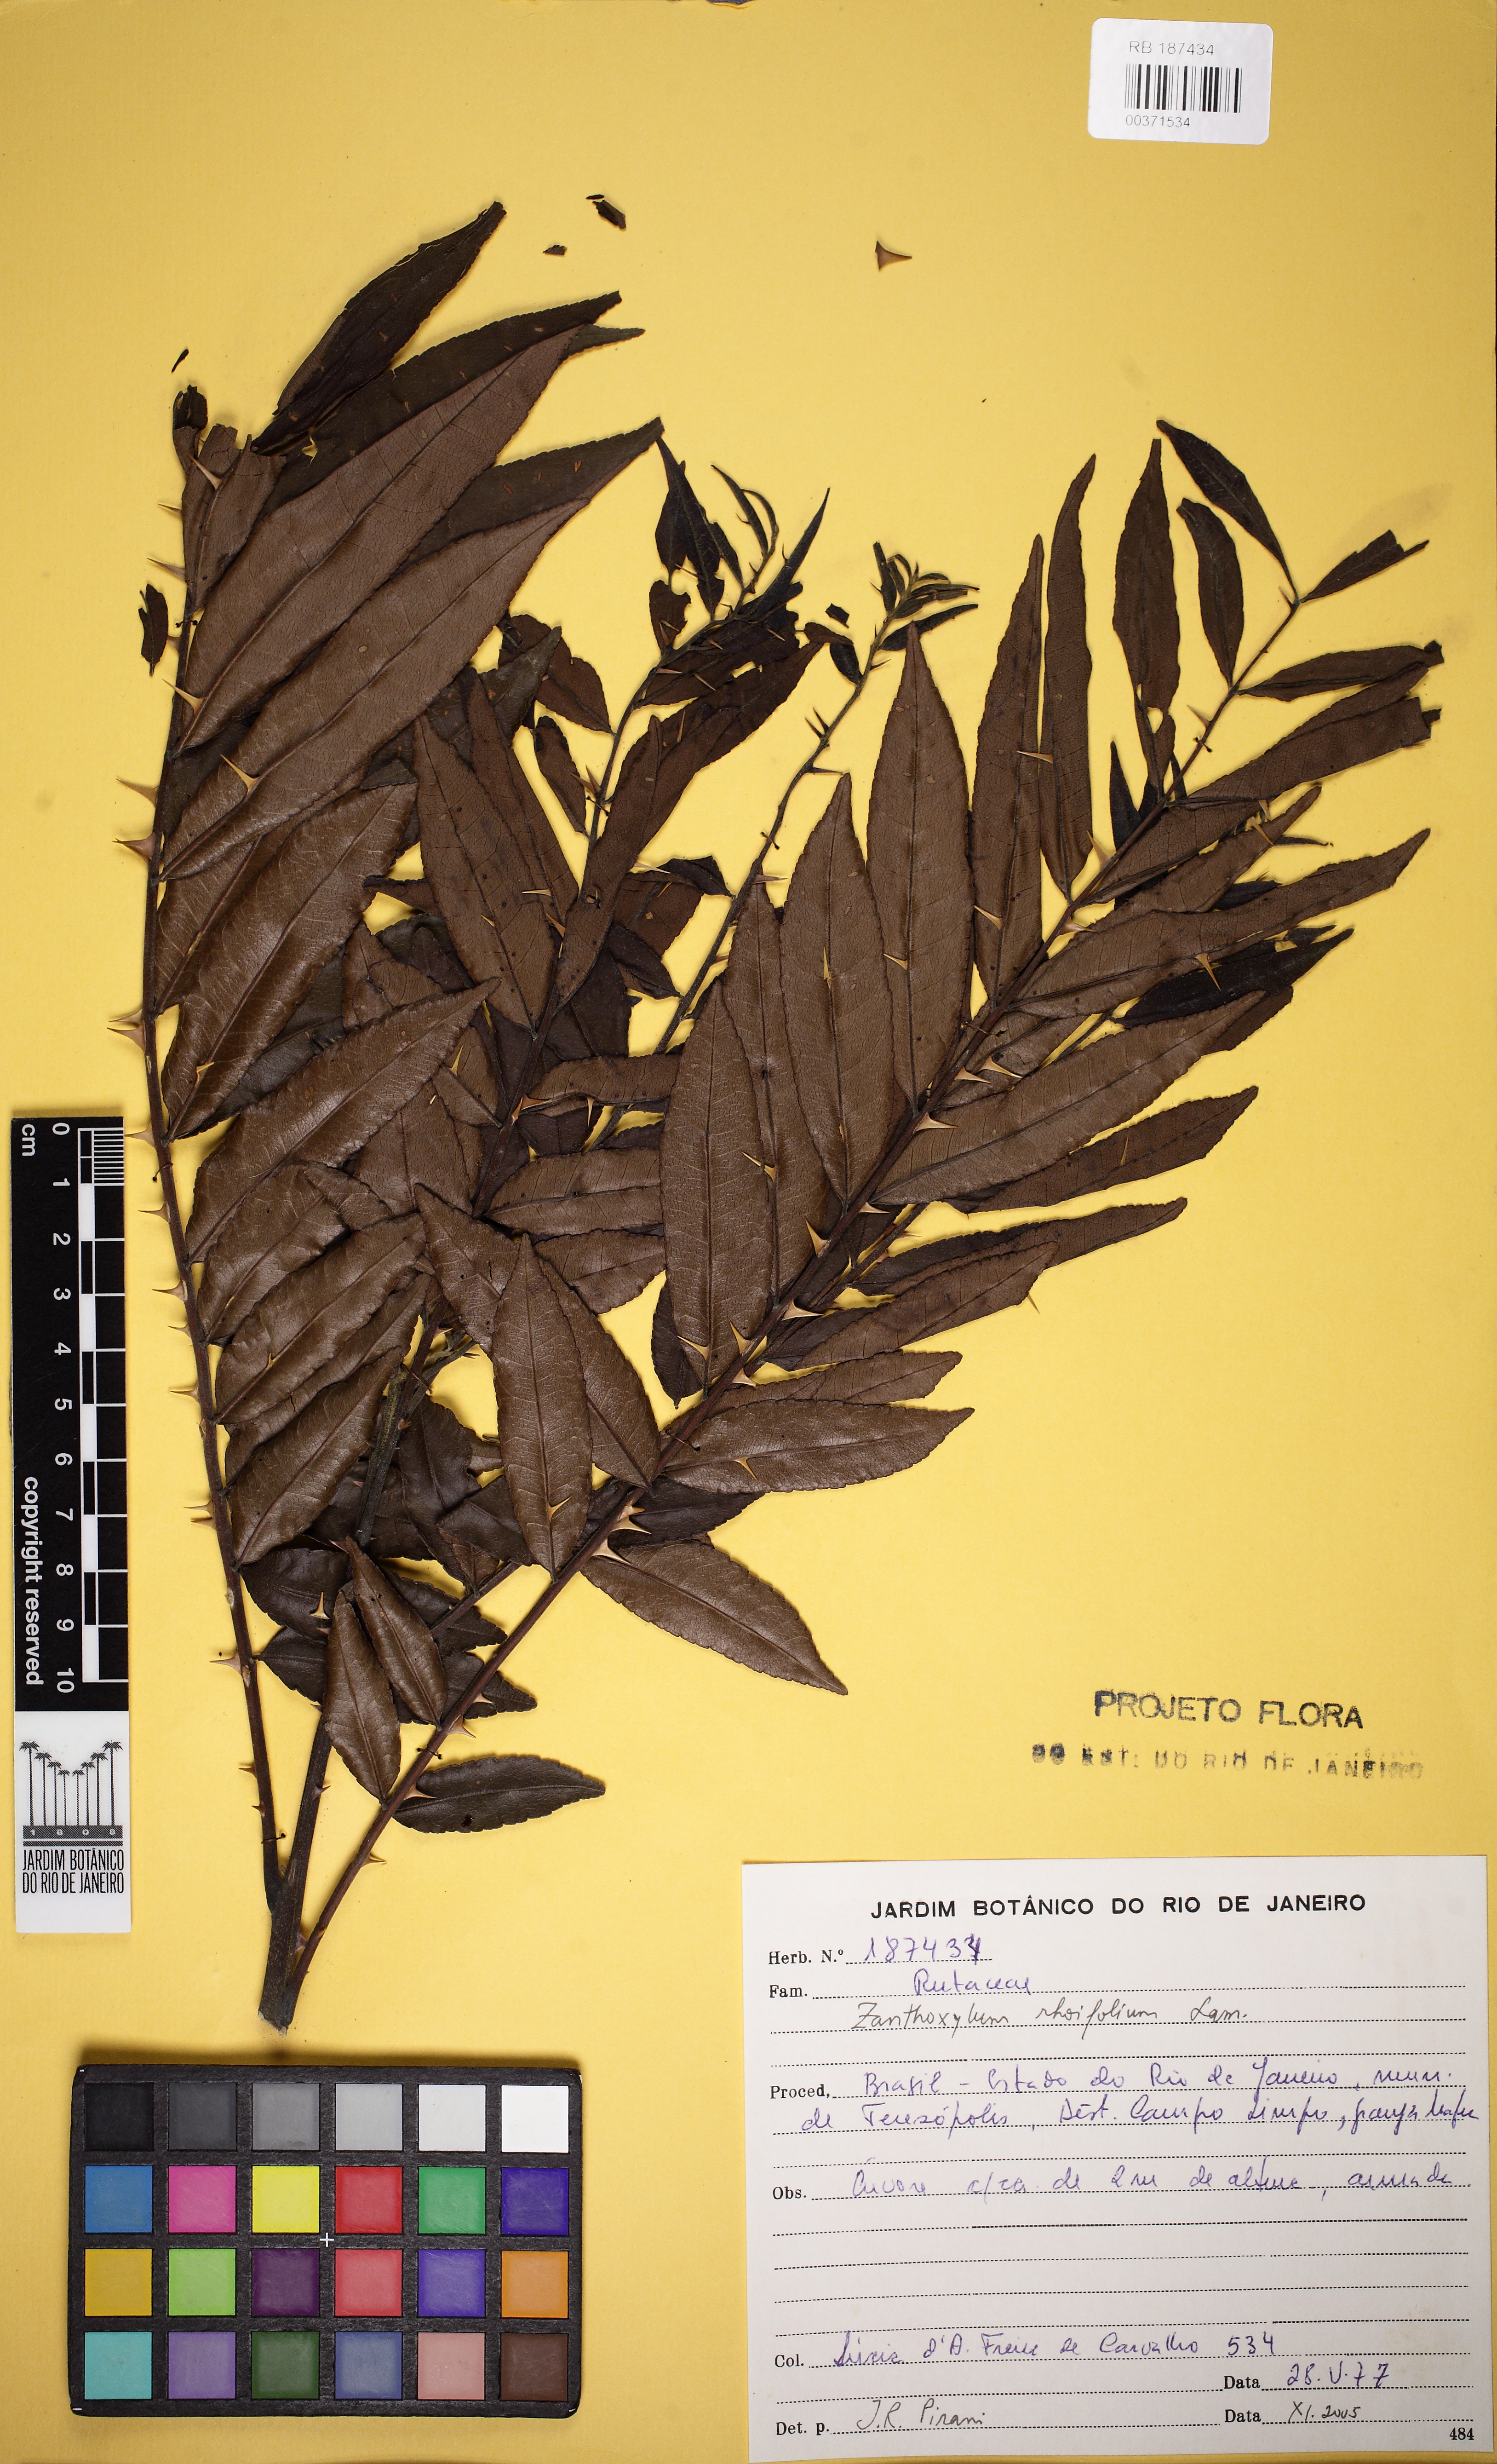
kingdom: Plantae
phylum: Tracheophyta
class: Magnoliopsida
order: Sapindales
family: Rutaceae
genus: Zanthoxylum
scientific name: Zanthoxylum rhoifolium
